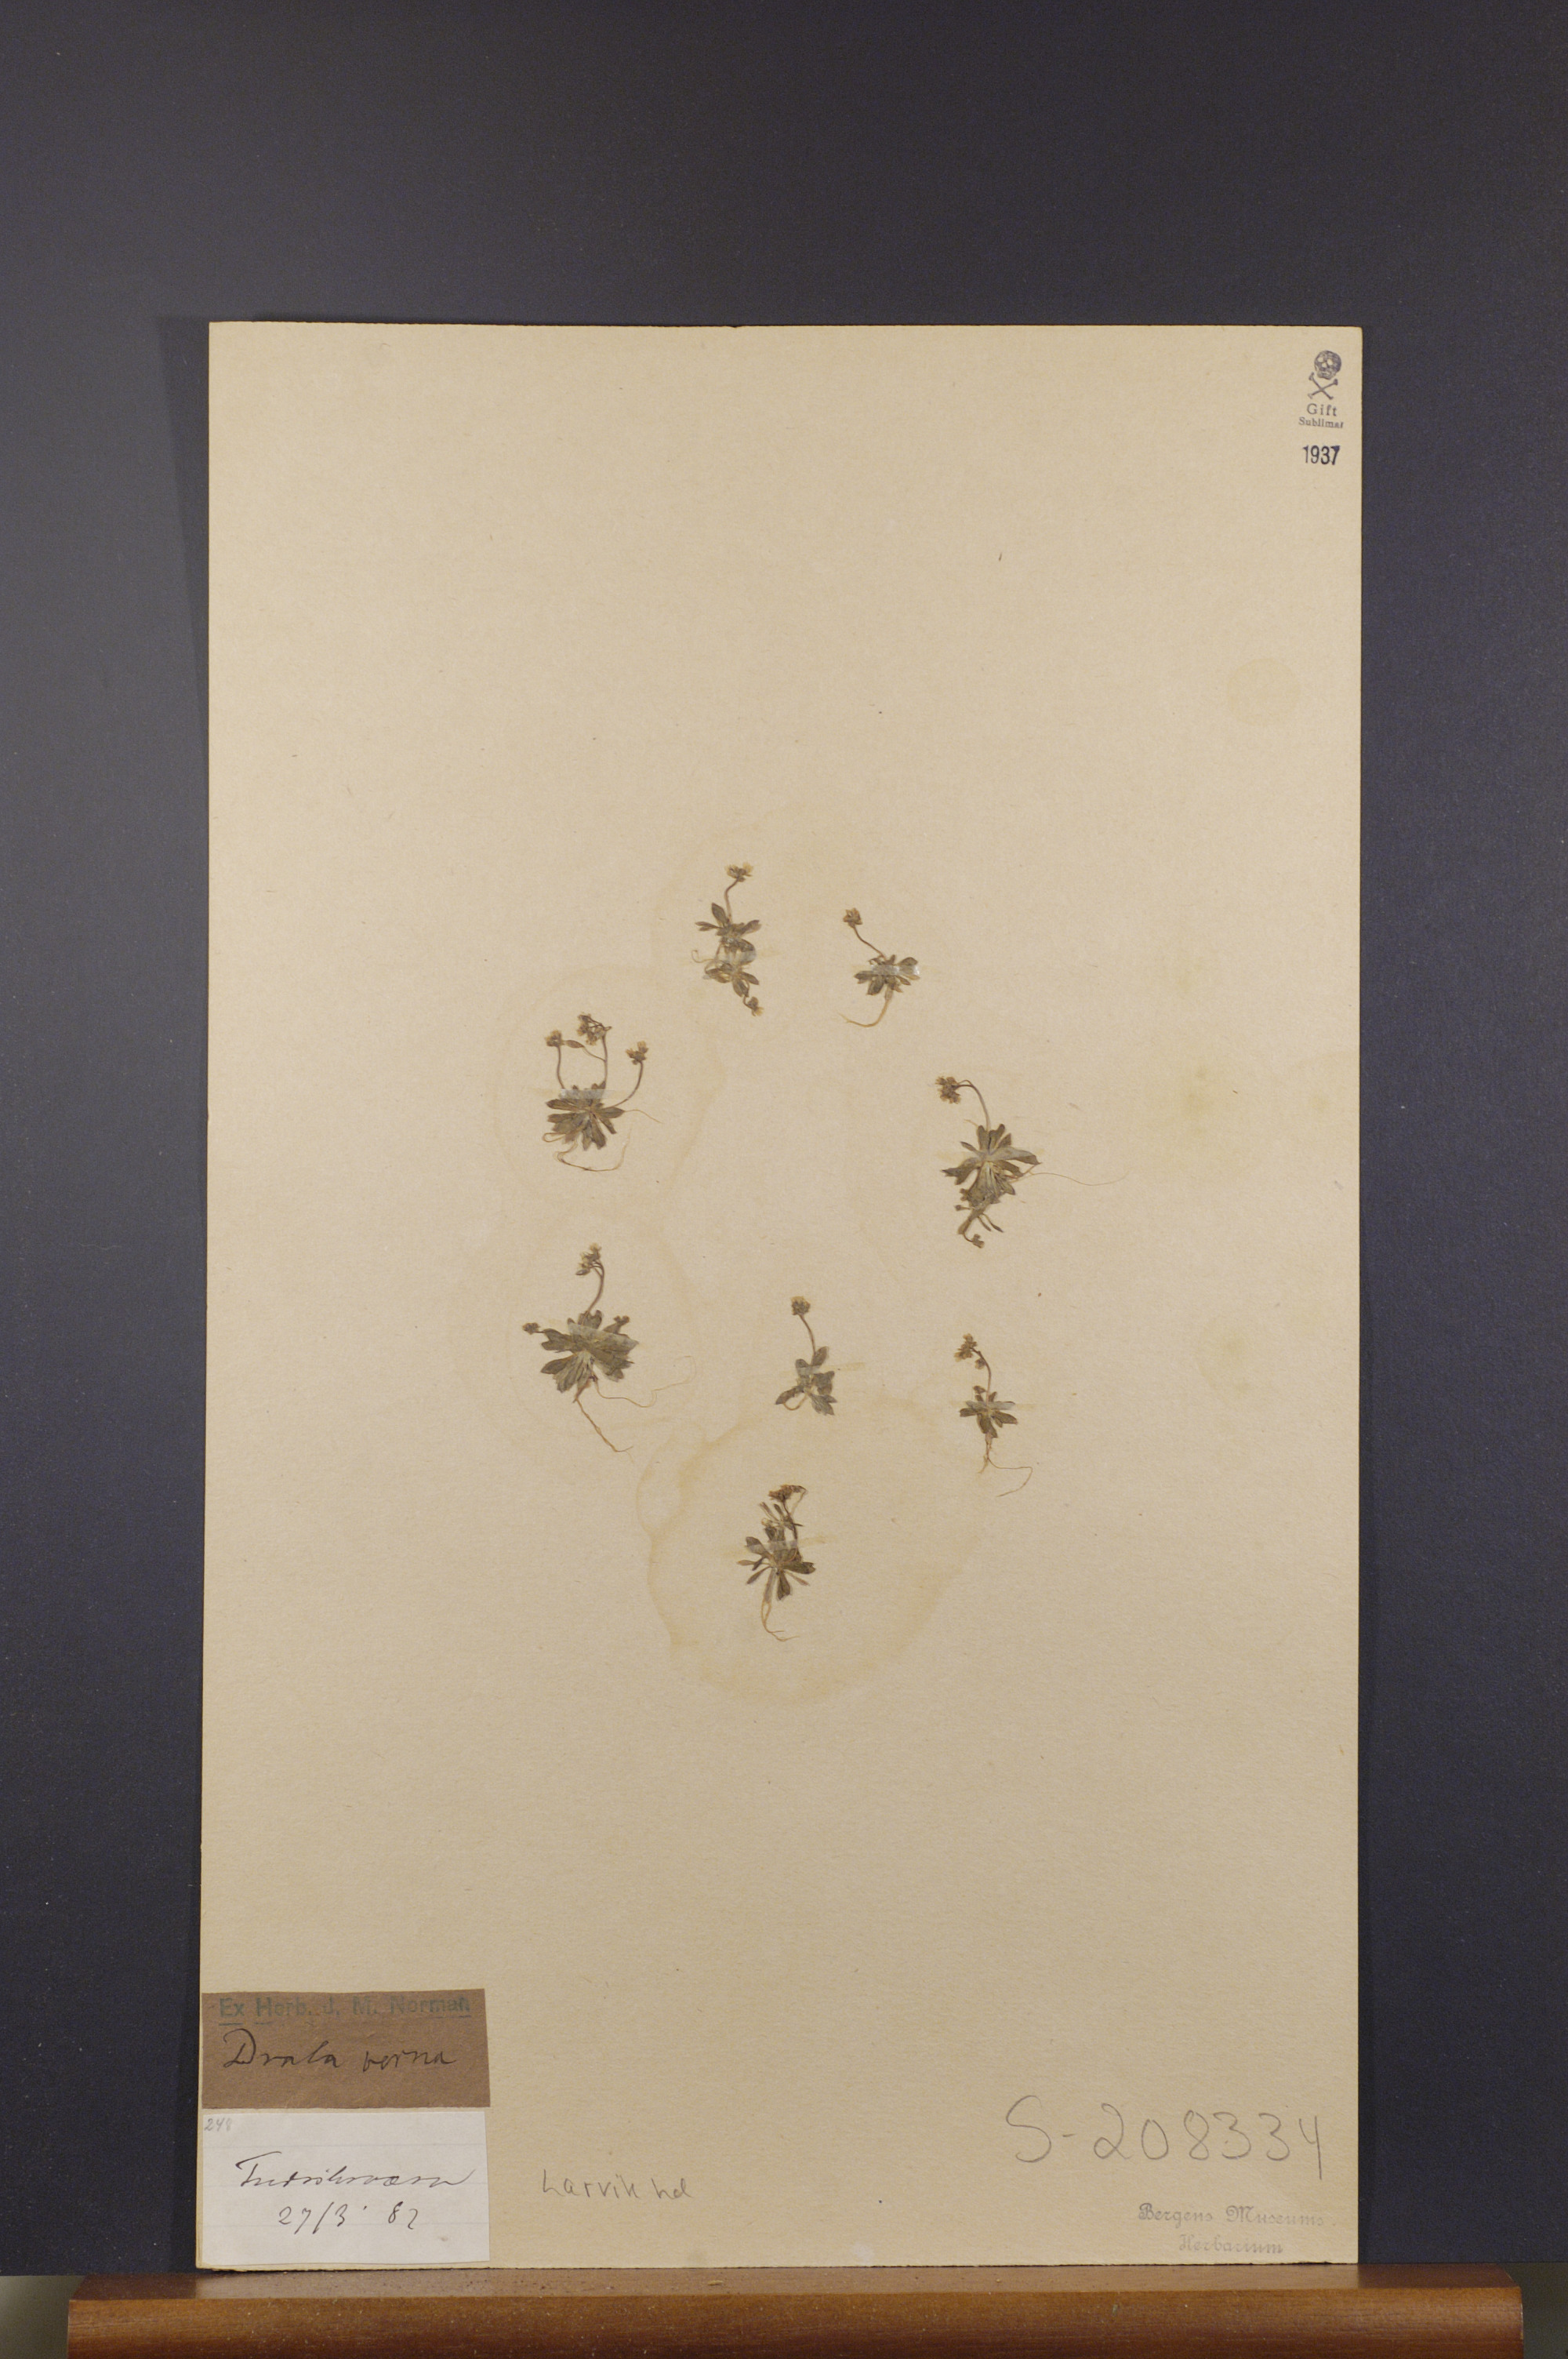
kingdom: Plantae
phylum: Tracheophyta
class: Magnoliopsida
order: Brassicales
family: Brassicaceae
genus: Draba
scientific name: Draba verna
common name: Spring draba
